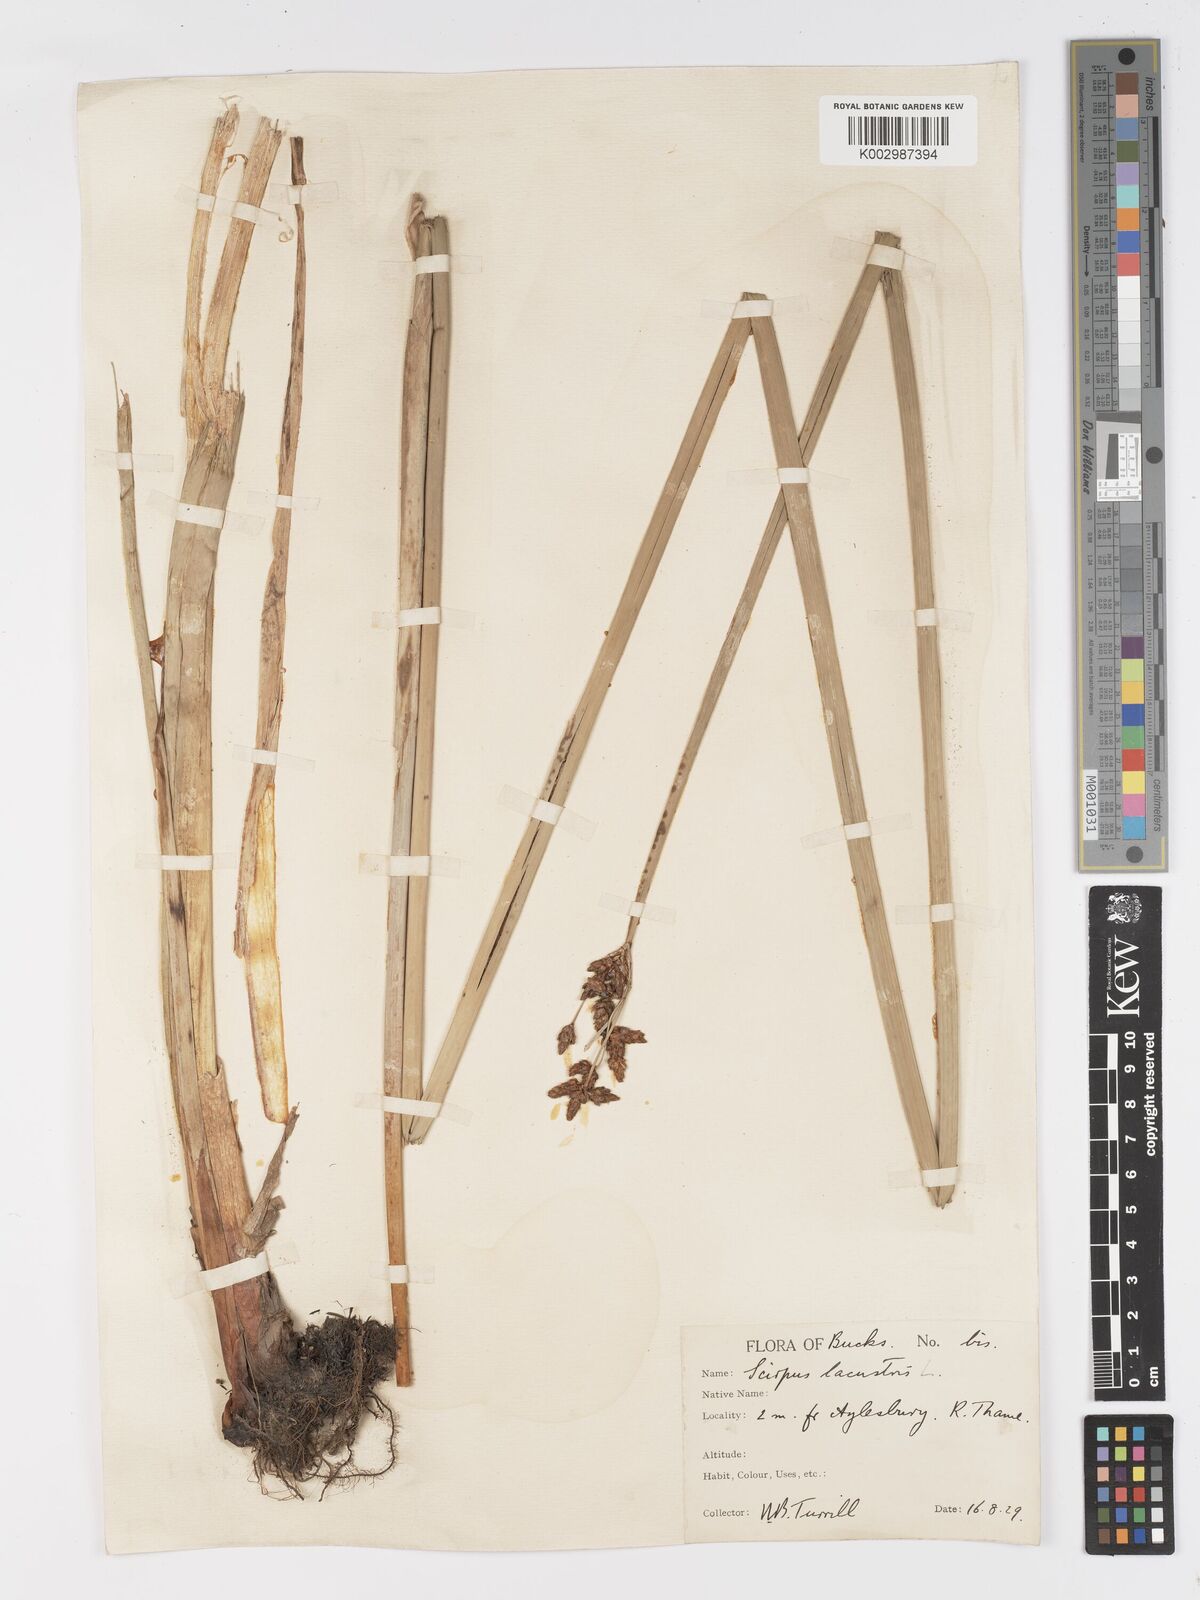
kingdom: Plantae
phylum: Tracheophyta
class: Liliopsida
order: Poales
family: Cyperaceae
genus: Schoenoplectus
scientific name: Schoenoplectus lacustris
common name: Common club-rush
